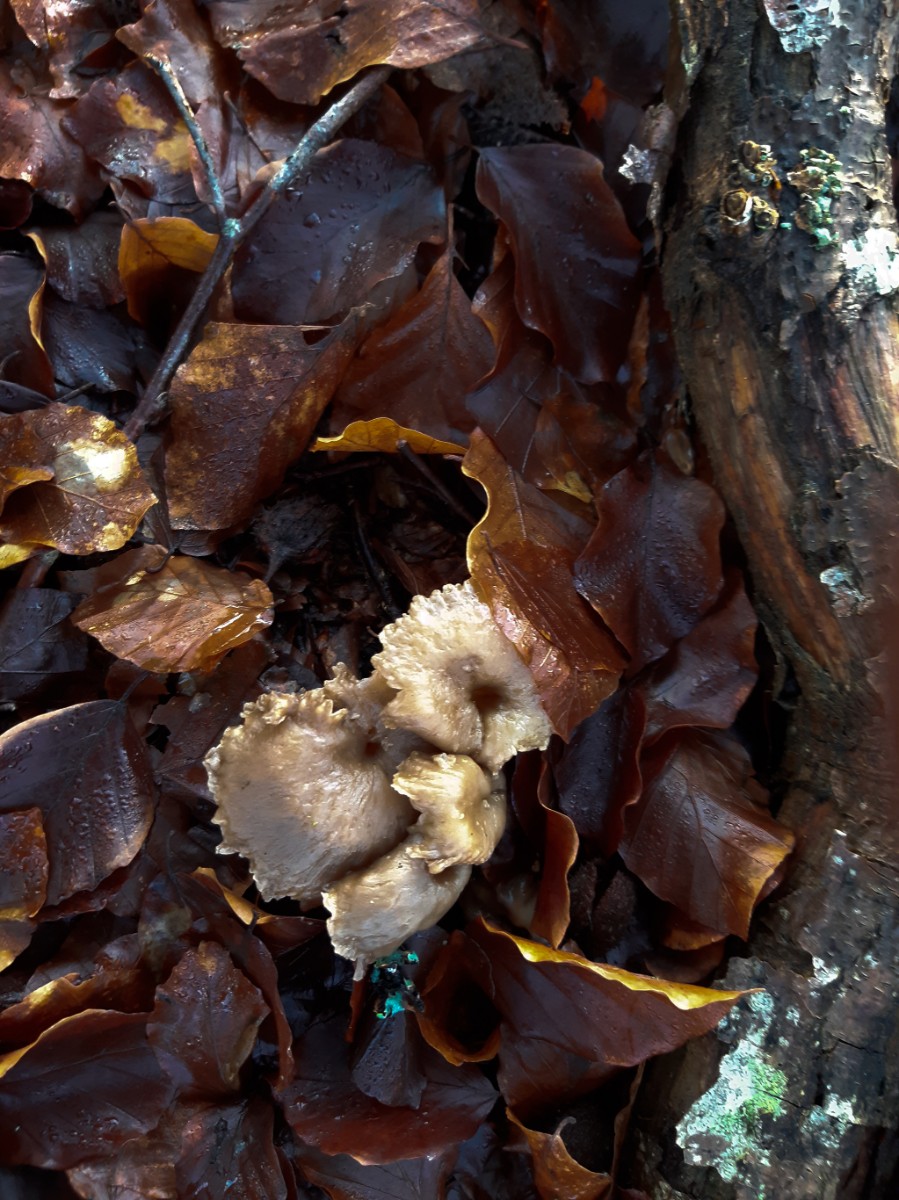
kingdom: Fungi
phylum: Basidiomycota
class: Agaricomycetes
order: Cantharellales
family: Hydnaceae
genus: Craterellus
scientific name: Craterellus tubaeformis
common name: tragt-kantarel
